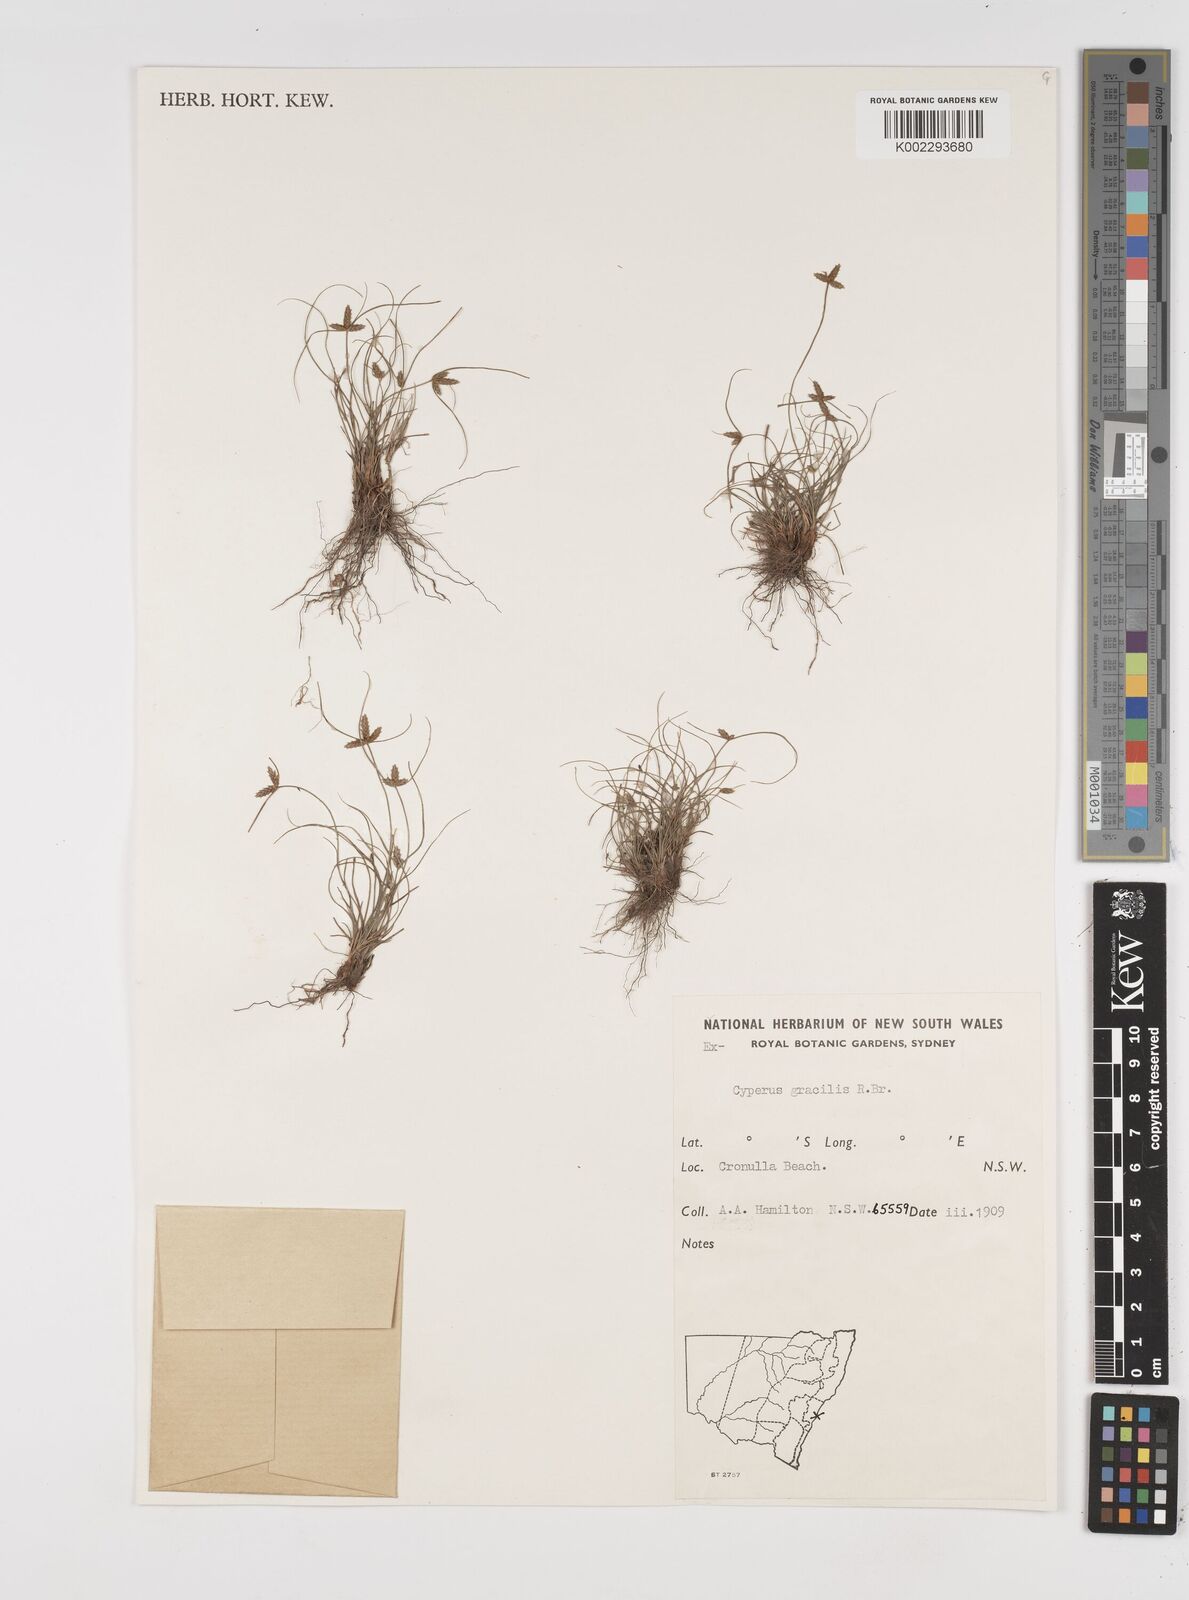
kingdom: Plantae
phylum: Tracheophyta
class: Liliopsida
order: Poales
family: Cyperaceae
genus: Cyperus
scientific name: Cyperus gracilis
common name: Slimjim flatsedge
